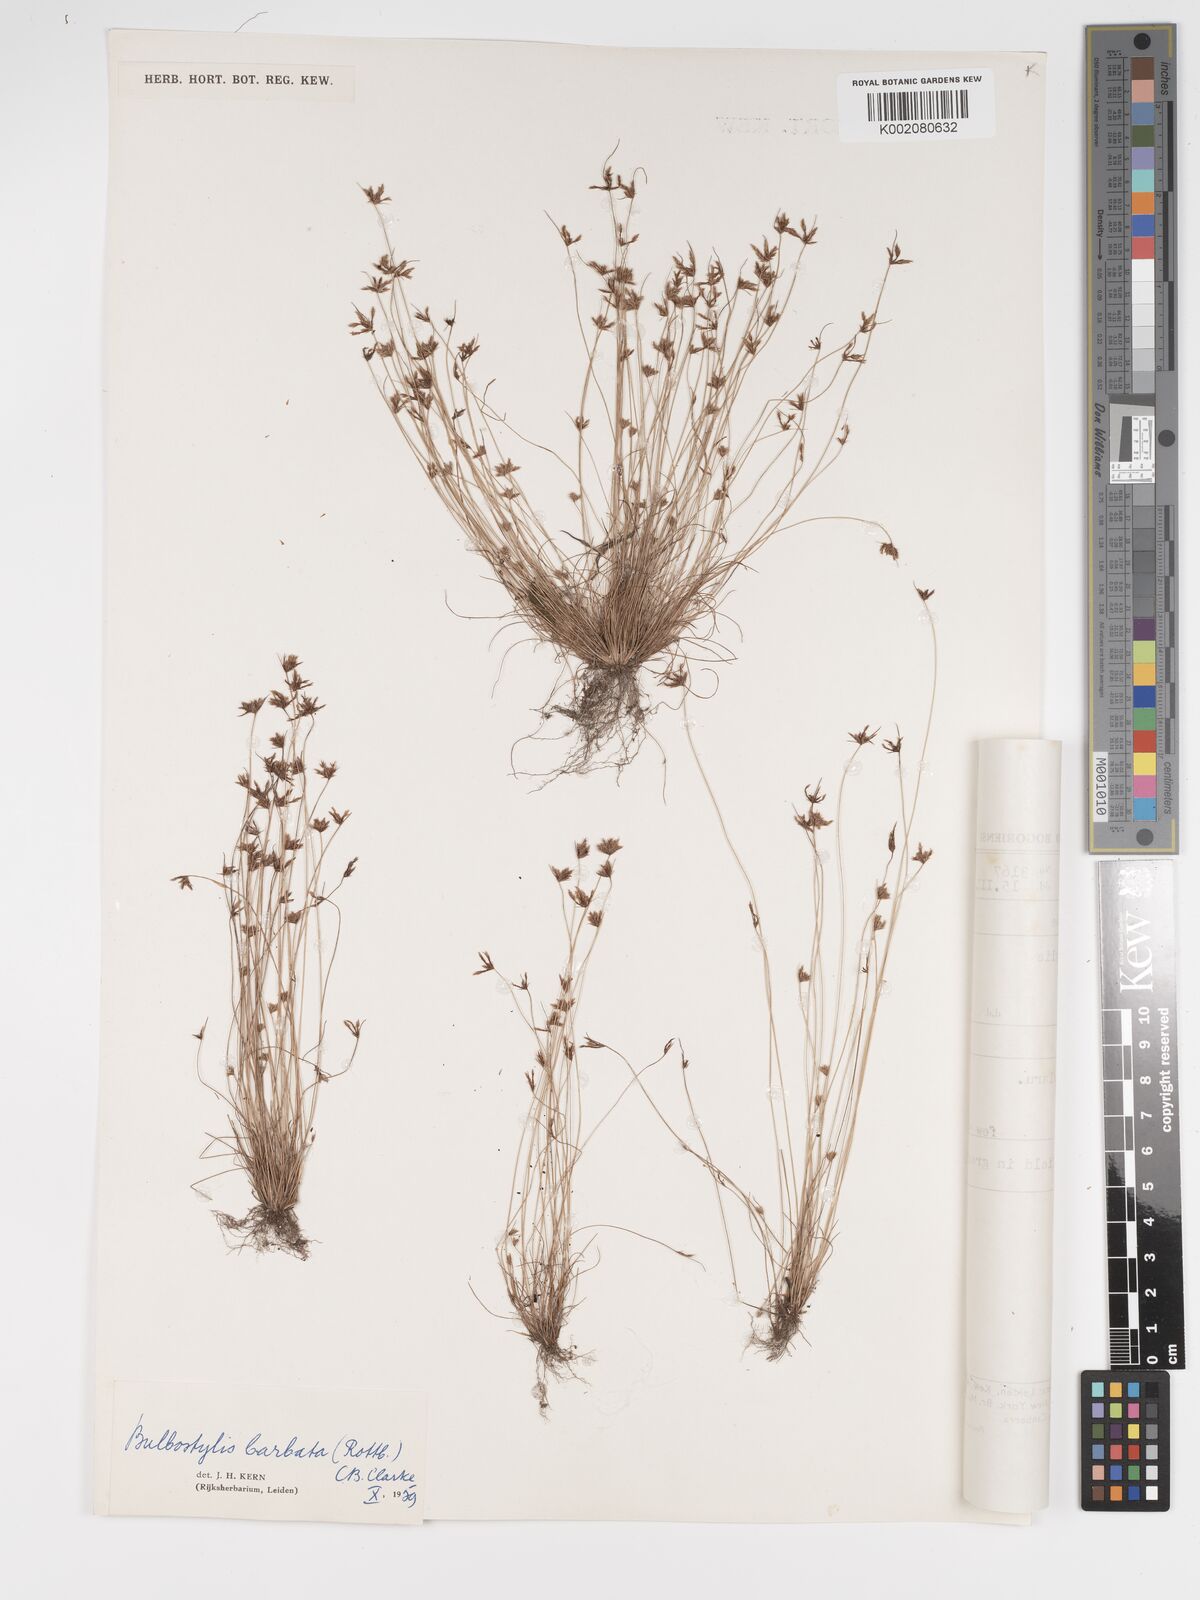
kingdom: Plantae
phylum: Tracheophyta
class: Liliopsida
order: Poales
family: Cyperaceae
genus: Bulbostylis
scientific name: Bulbostylis barbata
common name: Watergrass
